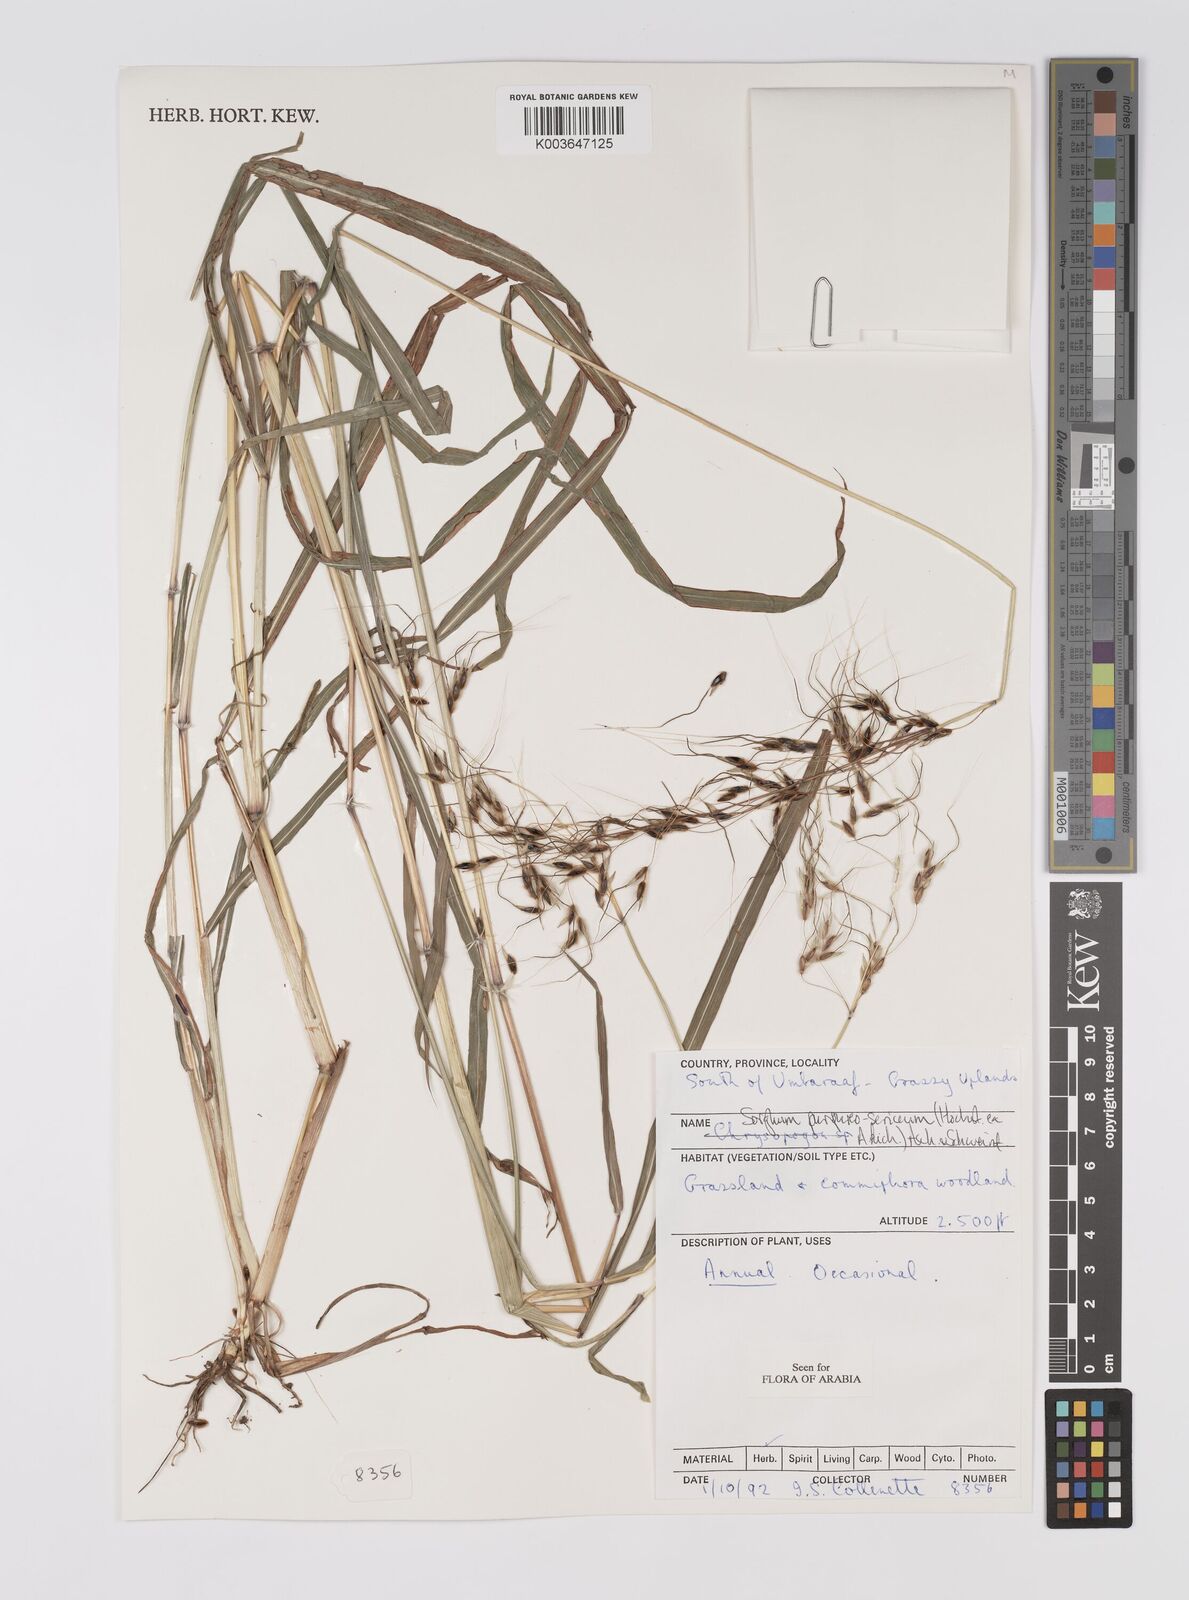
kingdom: Plantae
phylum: Tracheophyta
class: Liliopsida
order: Poales
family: Poaceae
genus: Sarga
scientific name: Sarga purpureosericea
